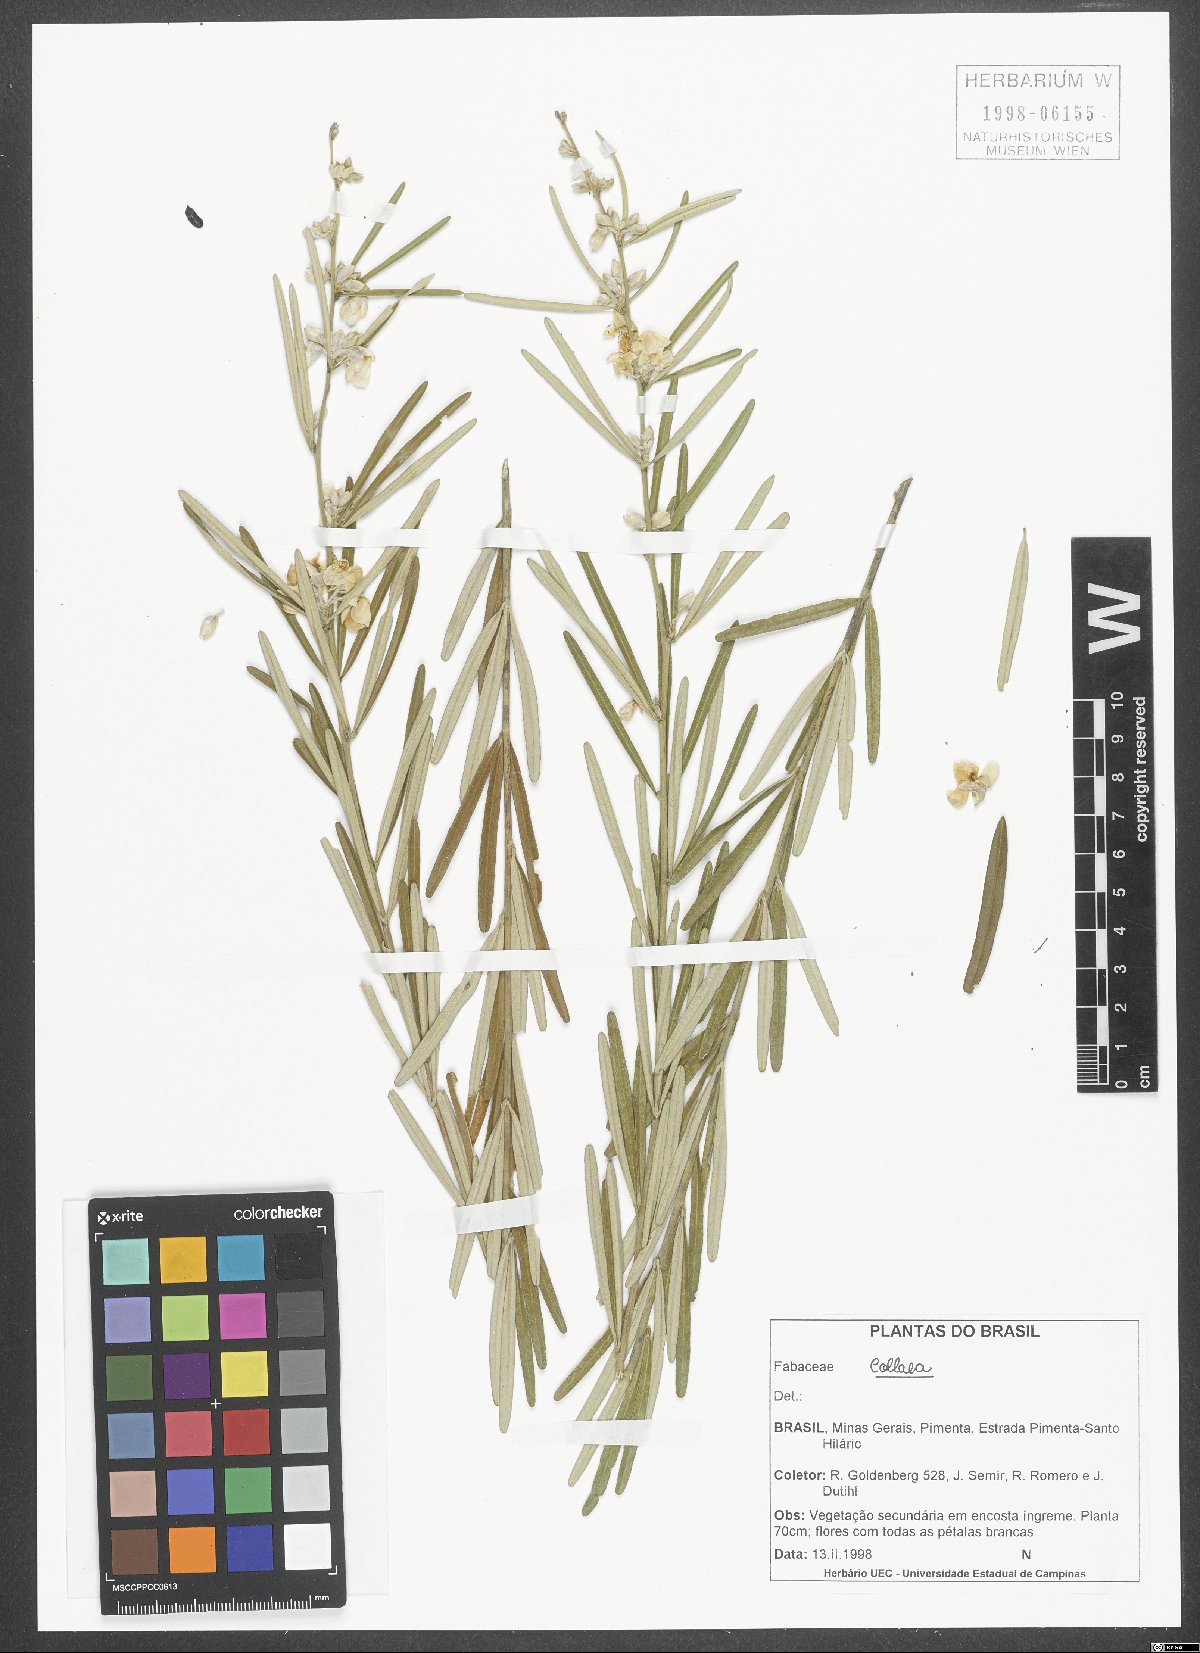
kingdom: Plantae
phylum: Tracheophyta
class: Magnoliopsida
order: Fabales
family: Fabaceae
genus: Collaea
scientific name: Collaea
